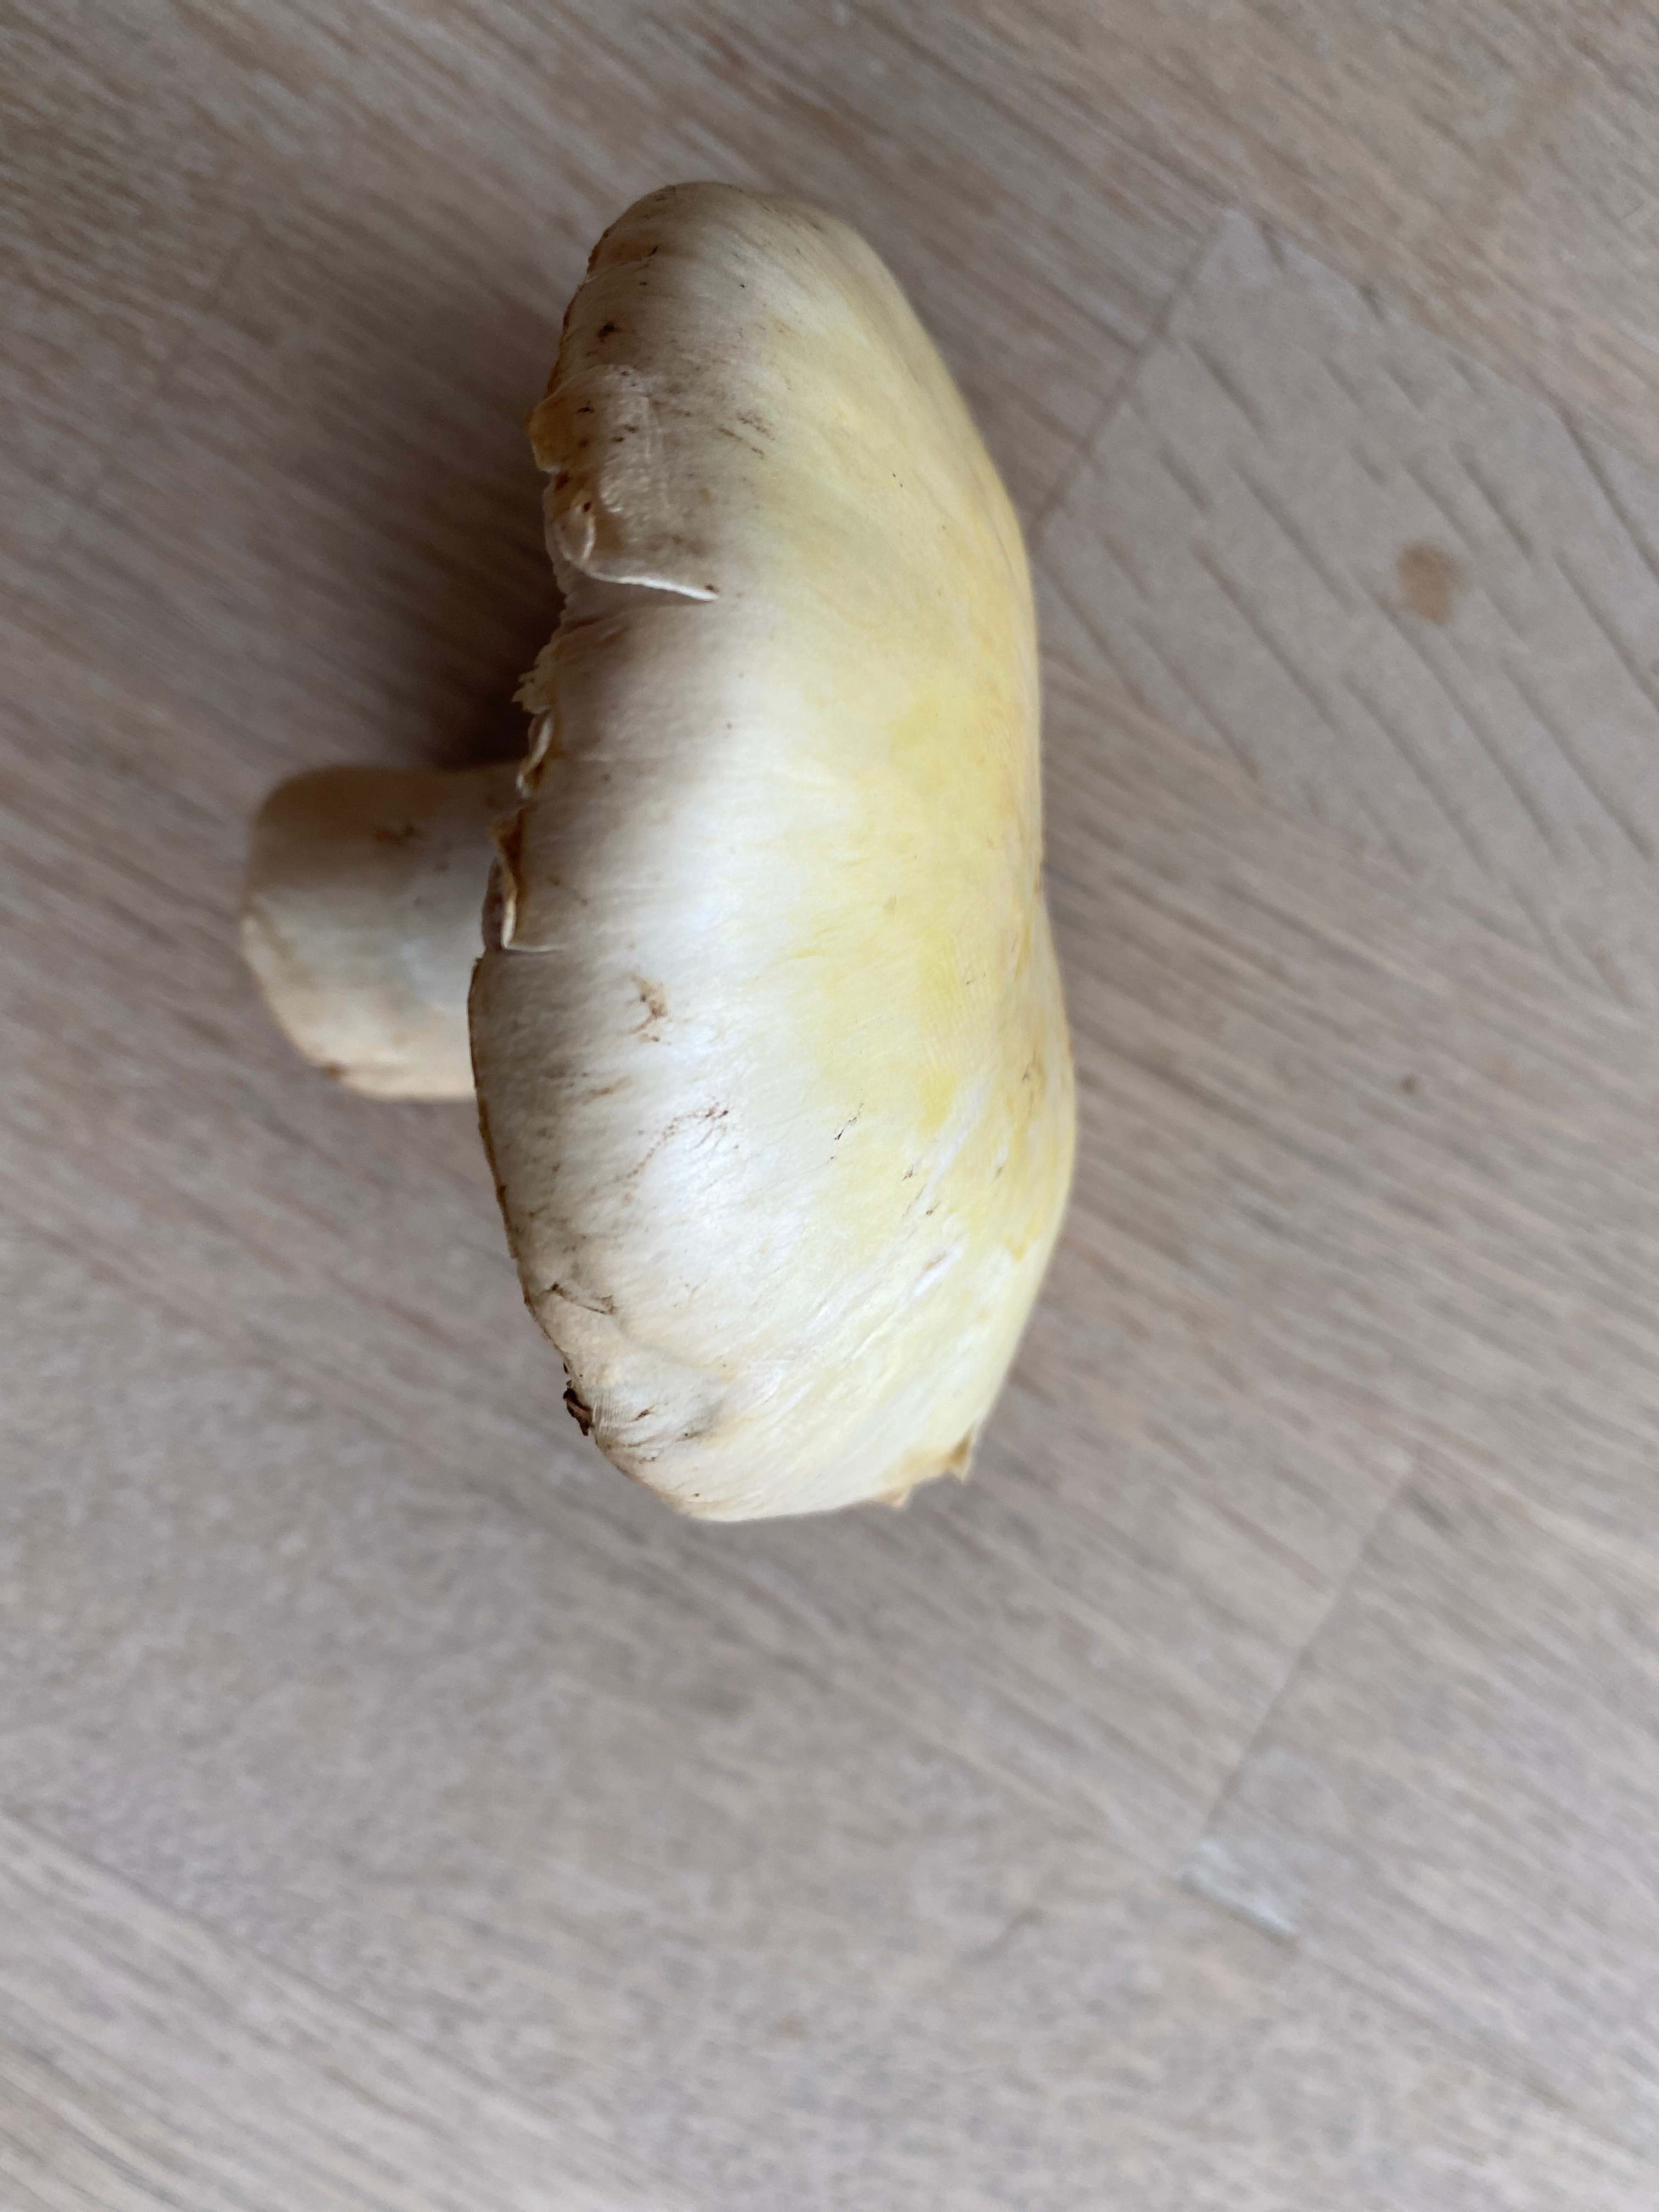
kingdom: Fungi
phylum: Basidiomycota
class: Agaricomycetes
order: Agaricales
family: Agaricaceae
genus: Agaricus
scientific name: Agaricus
